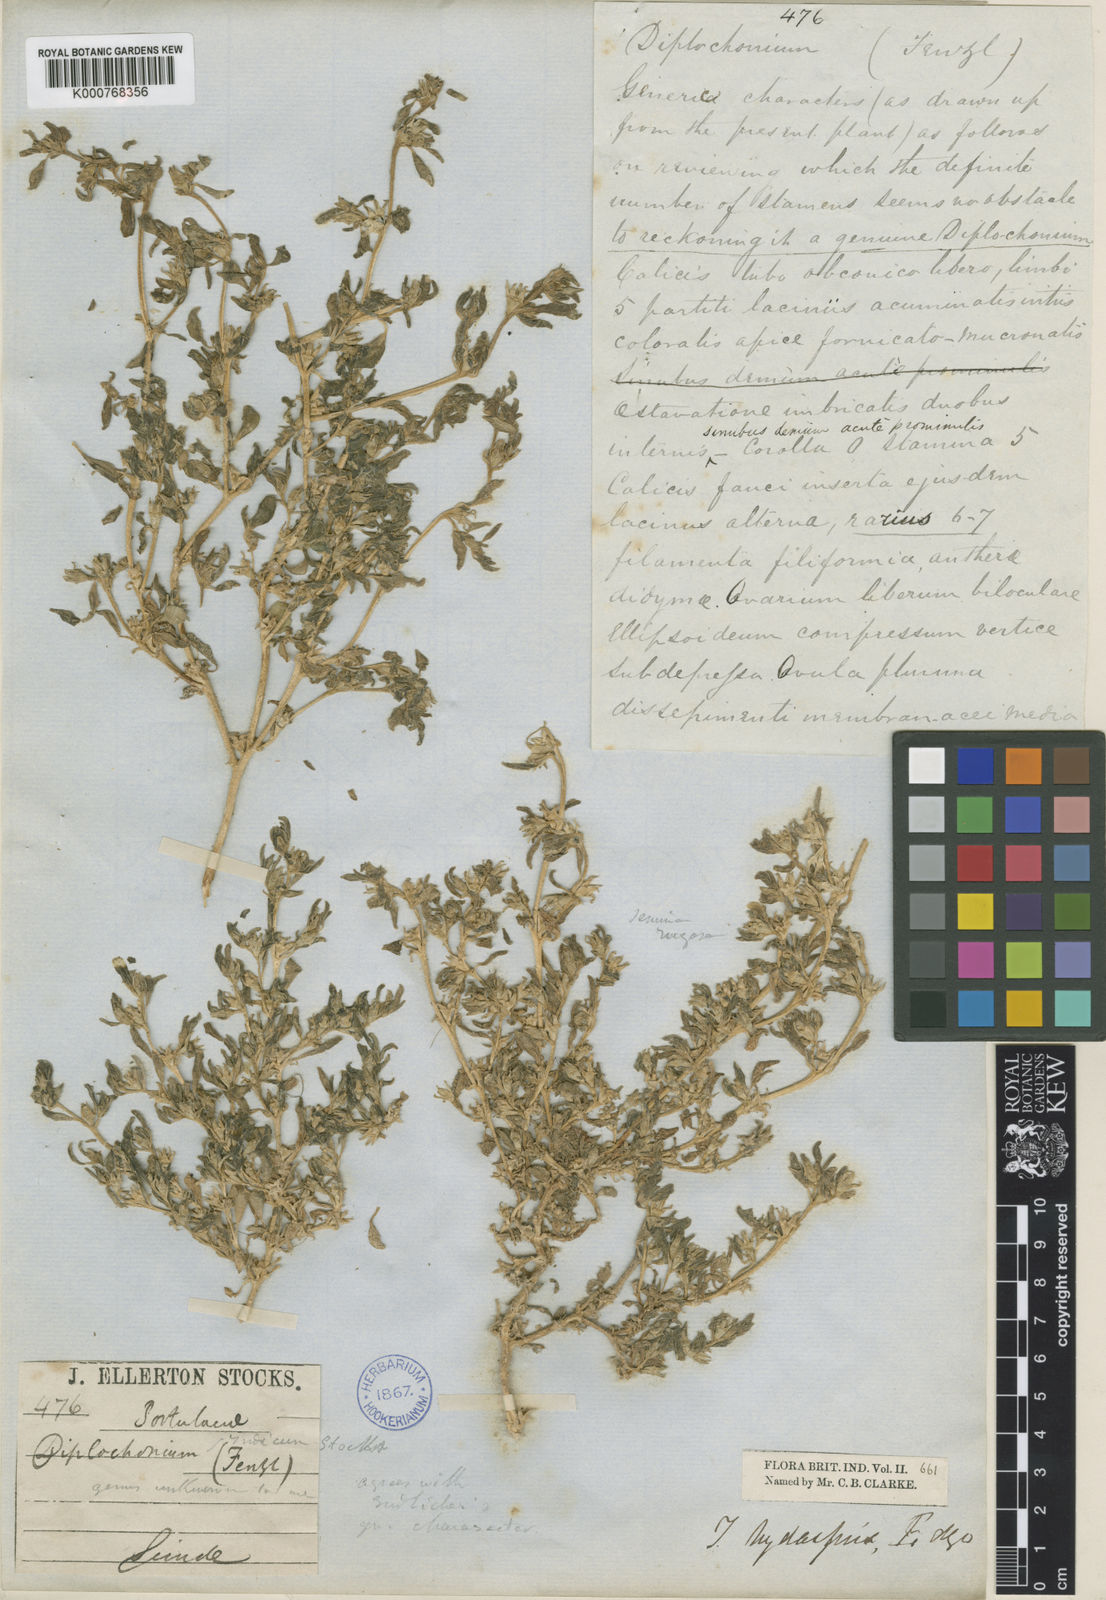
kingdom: Plantae
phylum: Tracheophyta
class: Magnoliopsida
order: Caryophyllales
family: Aizoaceae
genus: Sesuvium
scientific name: Sesuvium sesuvioides
